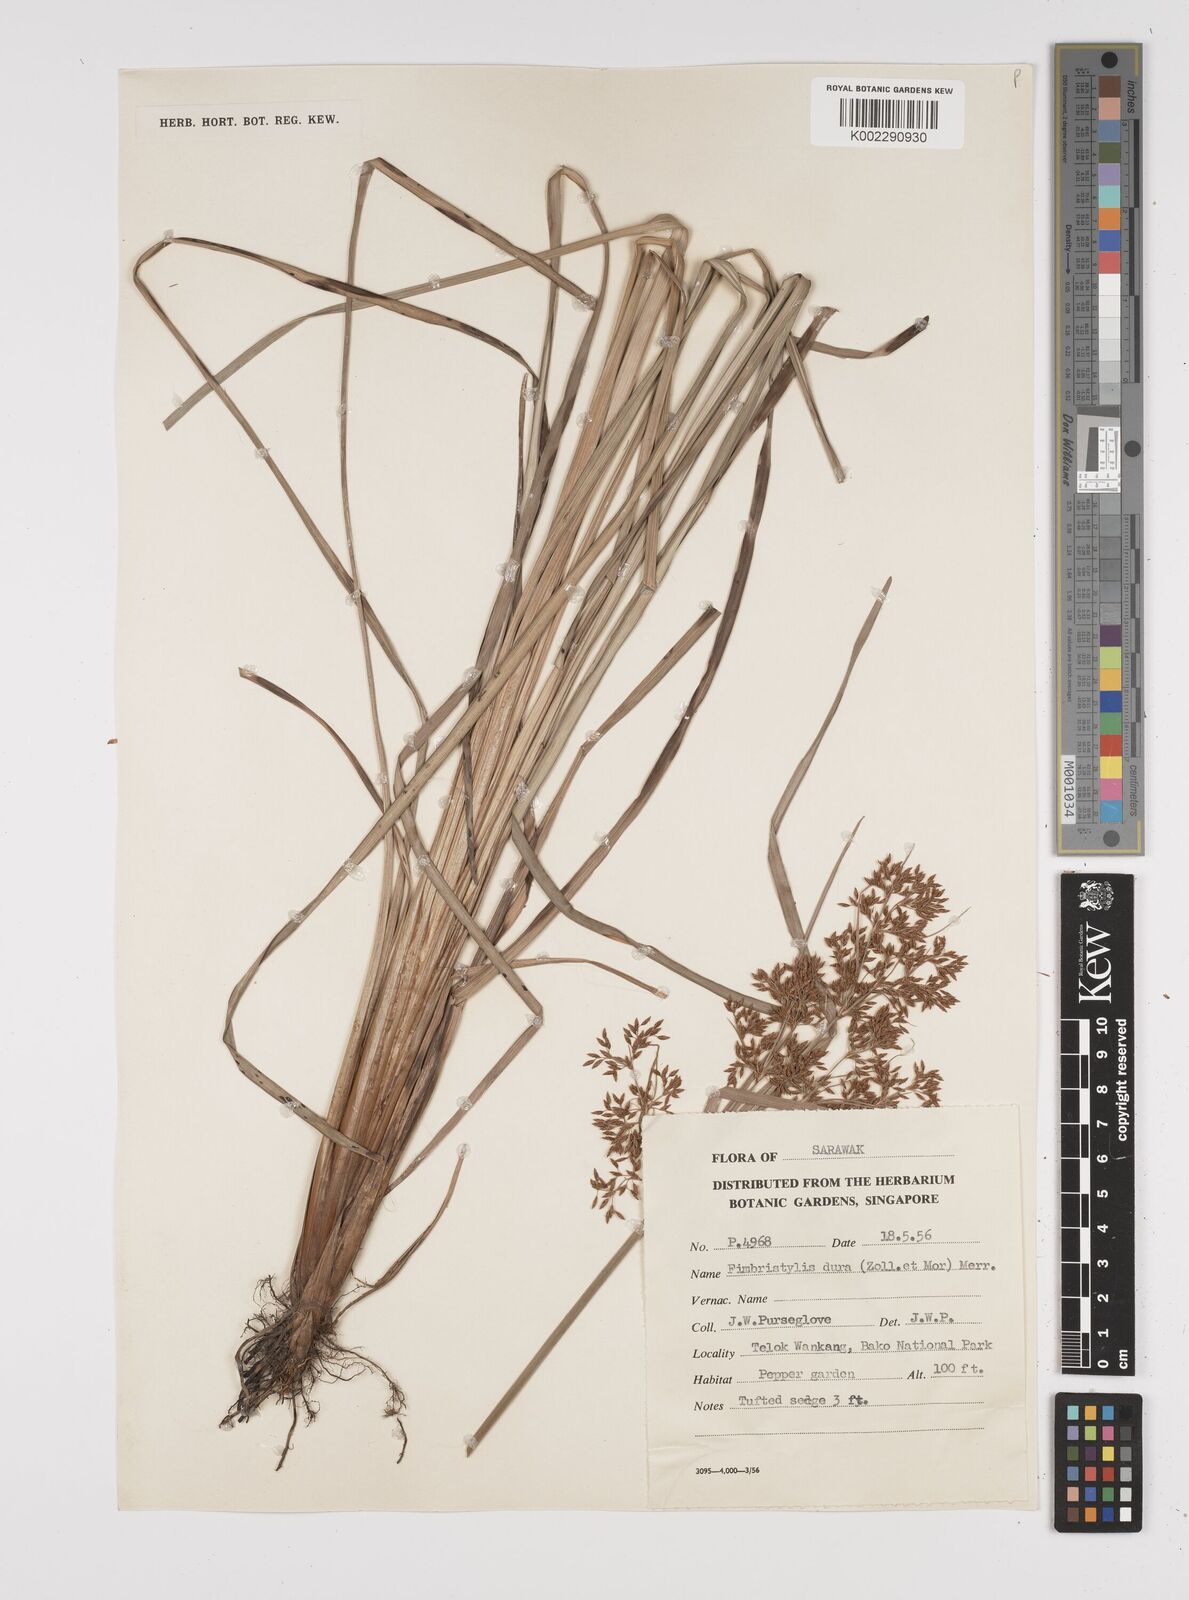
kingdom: Plantae
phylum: Tracheophyta
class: Liliopsida
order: Poales
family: Cyperaceae
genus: Fimbristylis
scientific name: Fimbristylis dura
